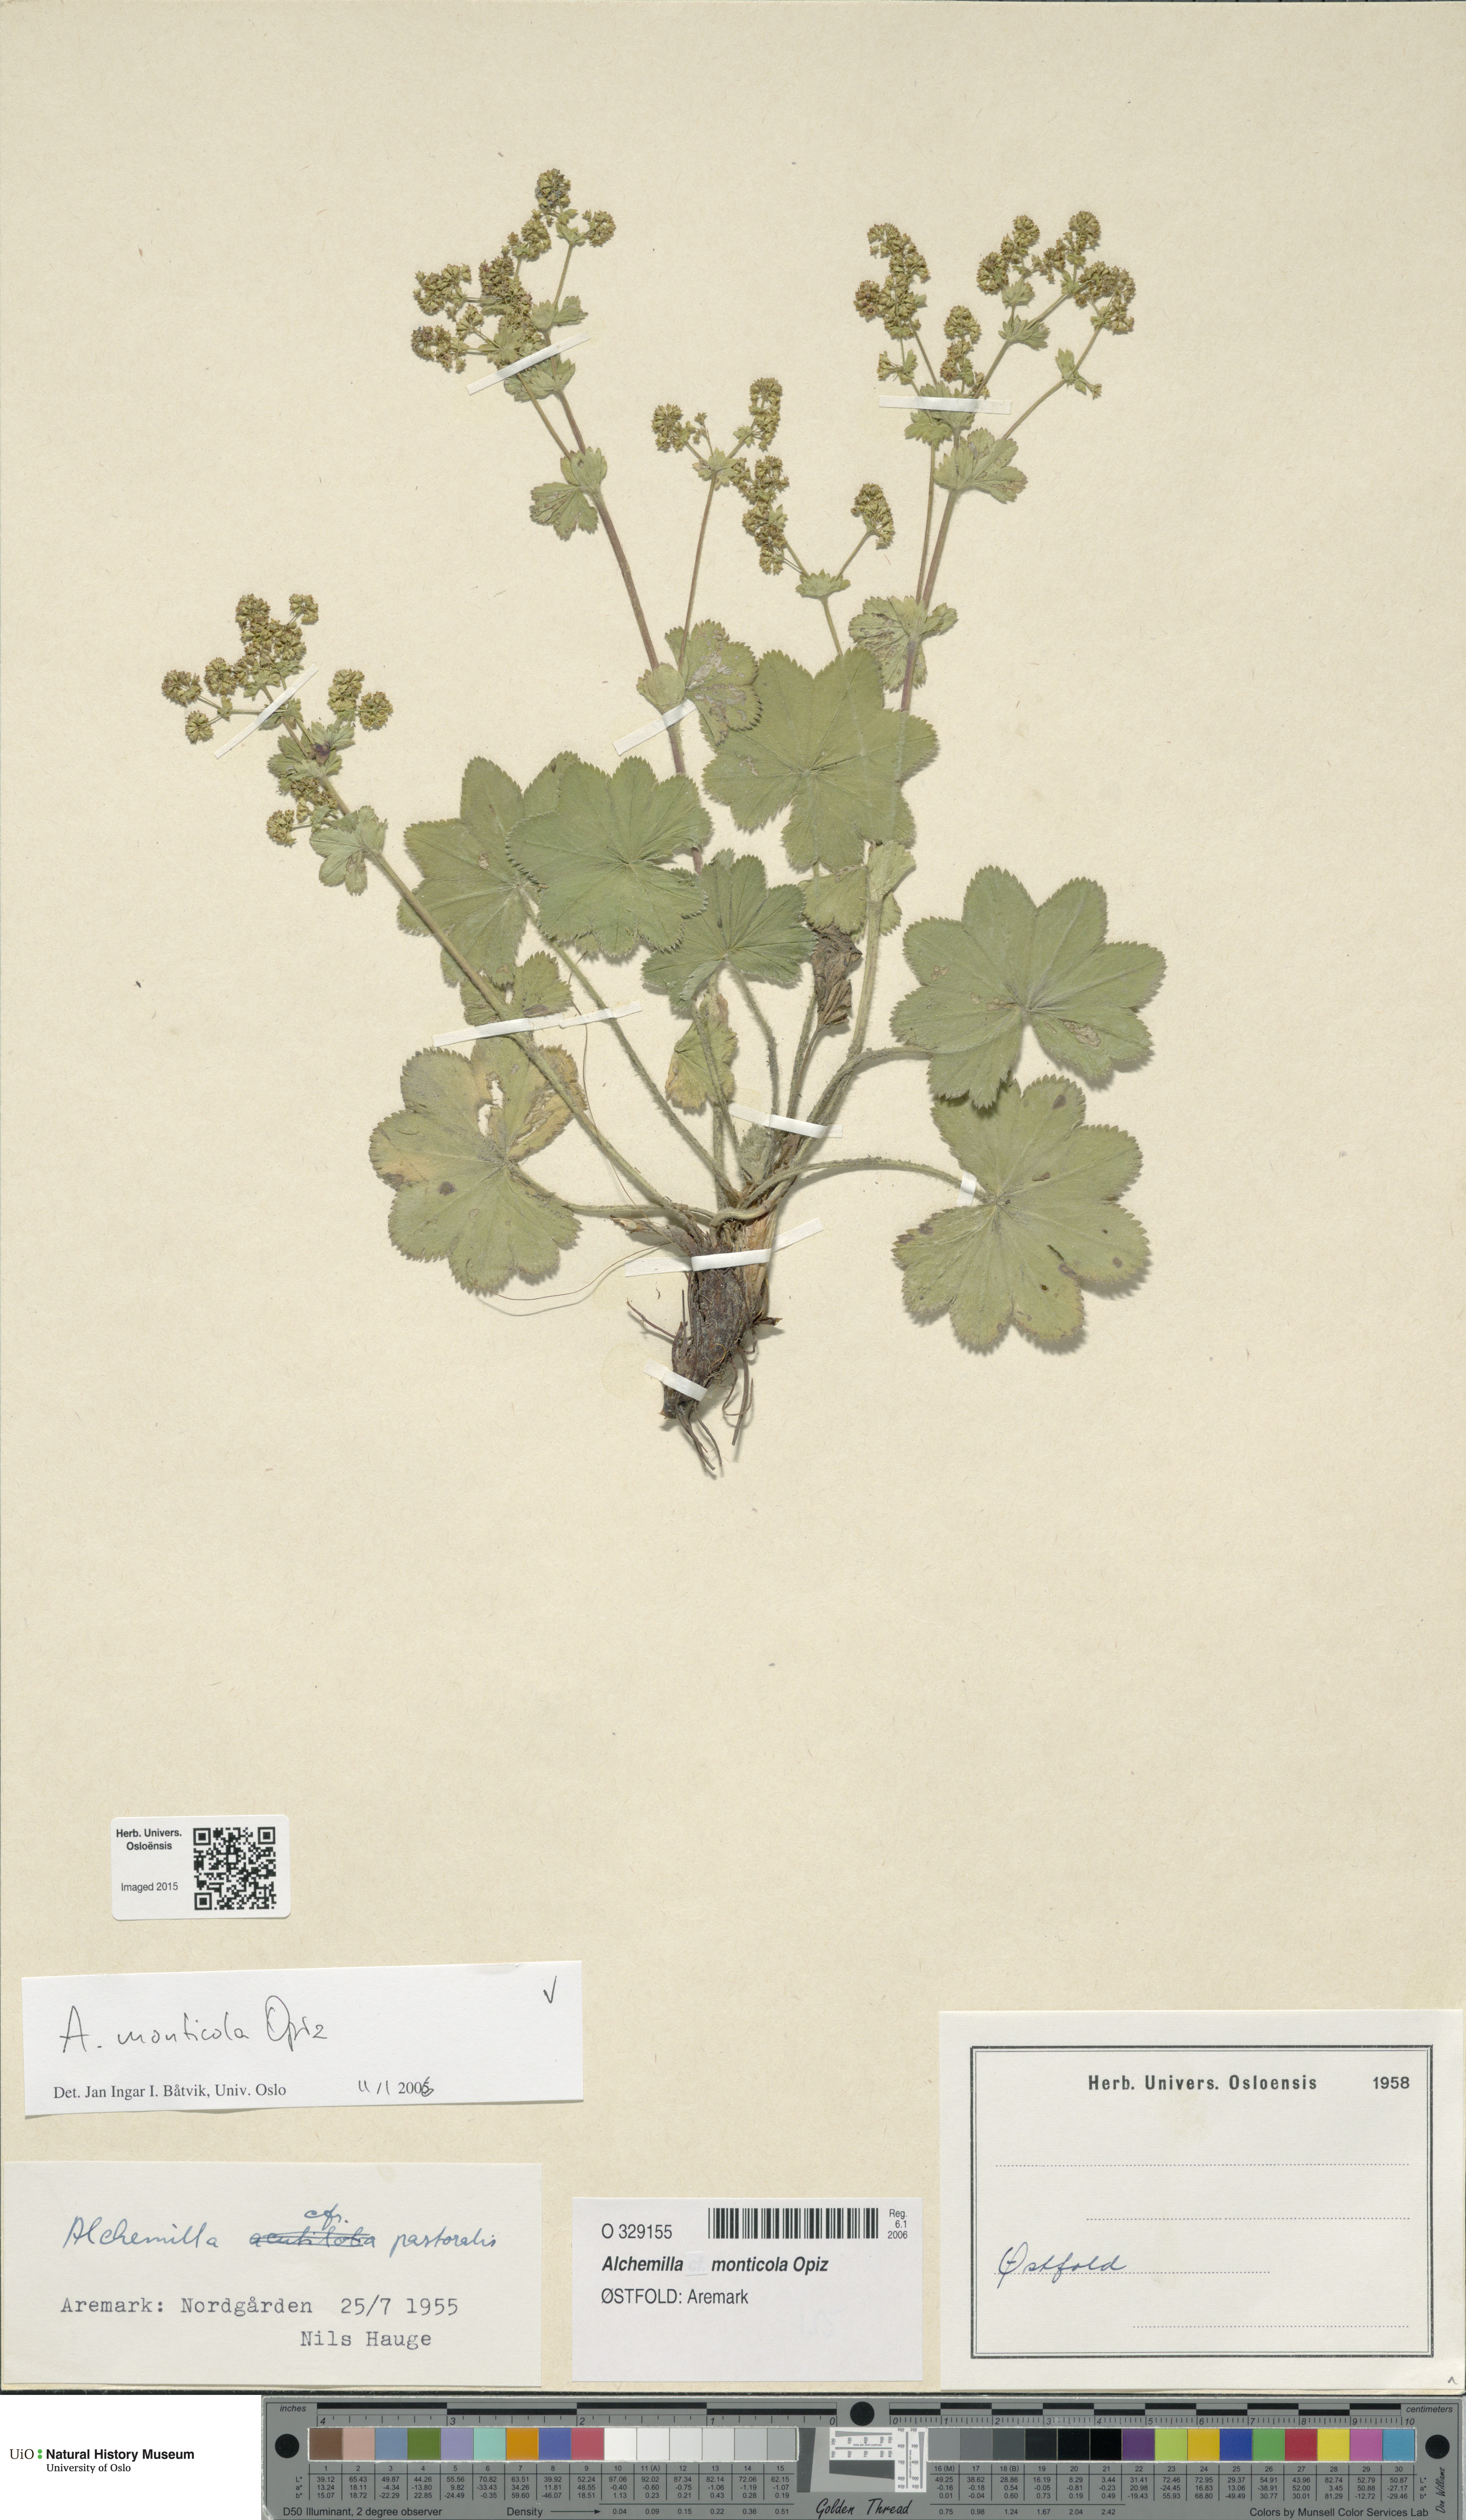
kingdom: Plantae
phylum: Tracheophyta
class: Magnoliopsida
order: Rosales
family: Rosaceae
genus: Alchemilla
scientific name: Alchemilla monticola
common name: Hairy lady's mantle
